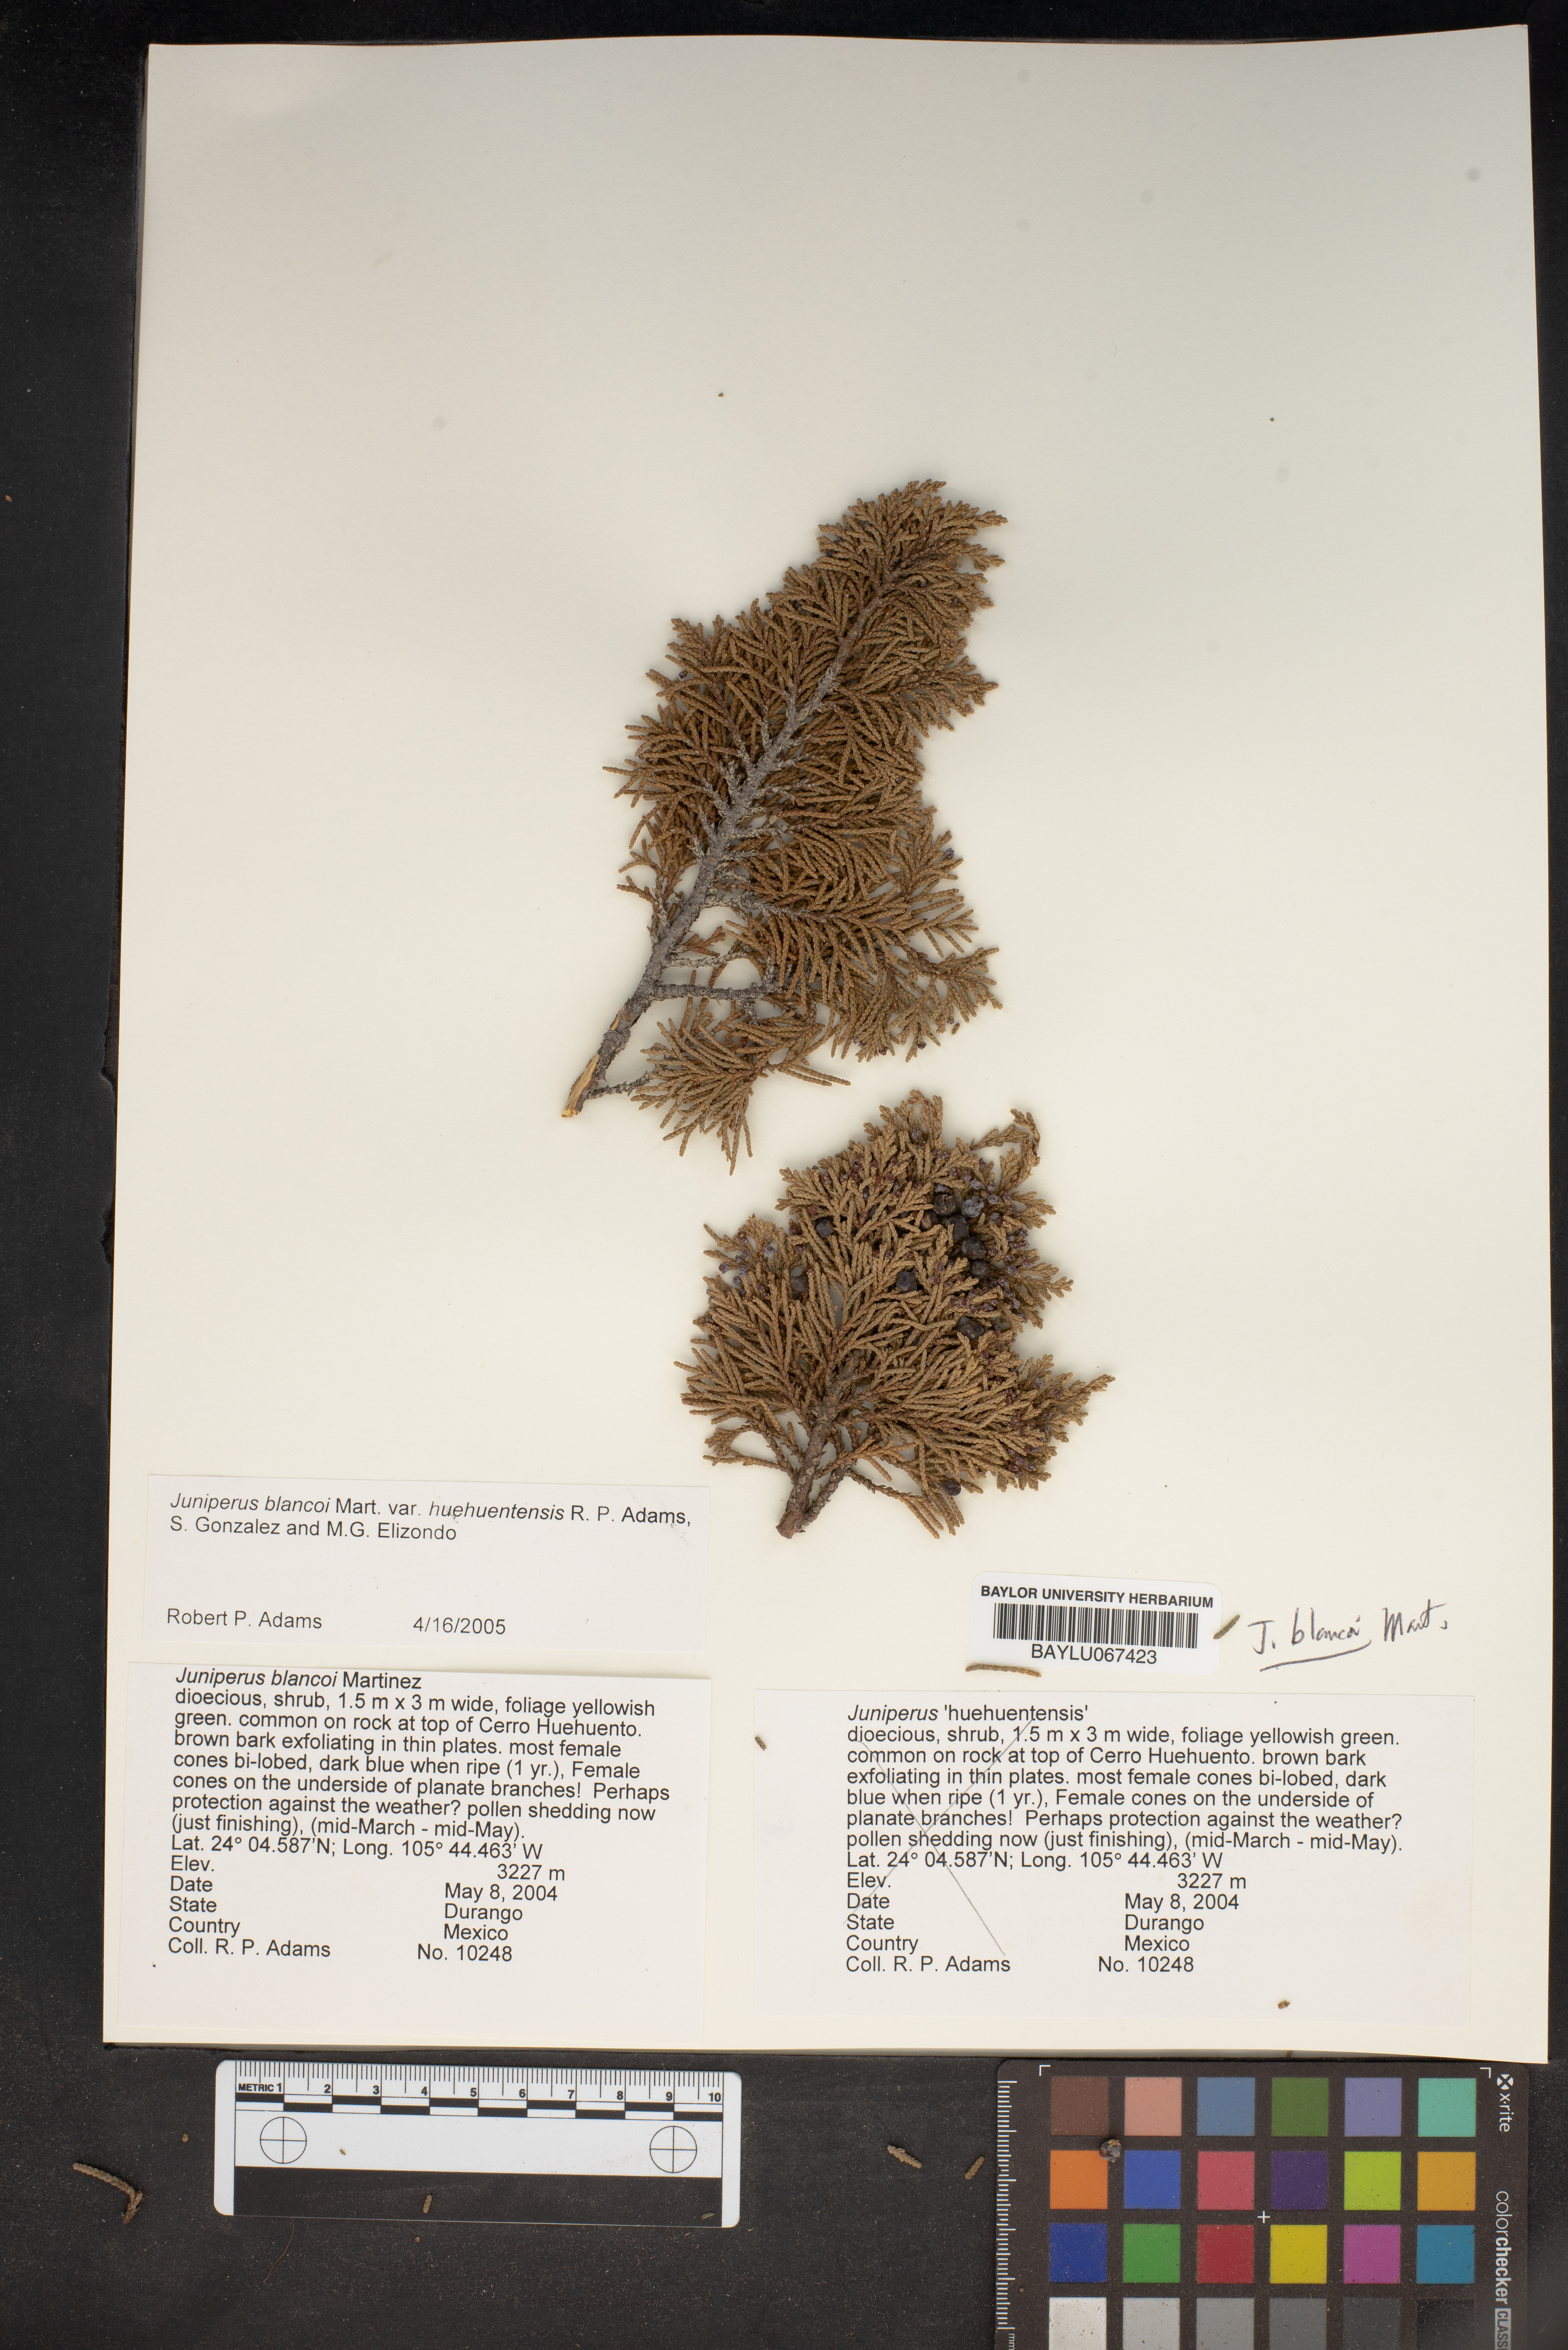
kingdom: Plantae
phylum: Tracheophyta
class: Pinopsida
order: Pinales
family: Cupressaceae
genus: Juniperus
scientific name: Juniperus blancoi
